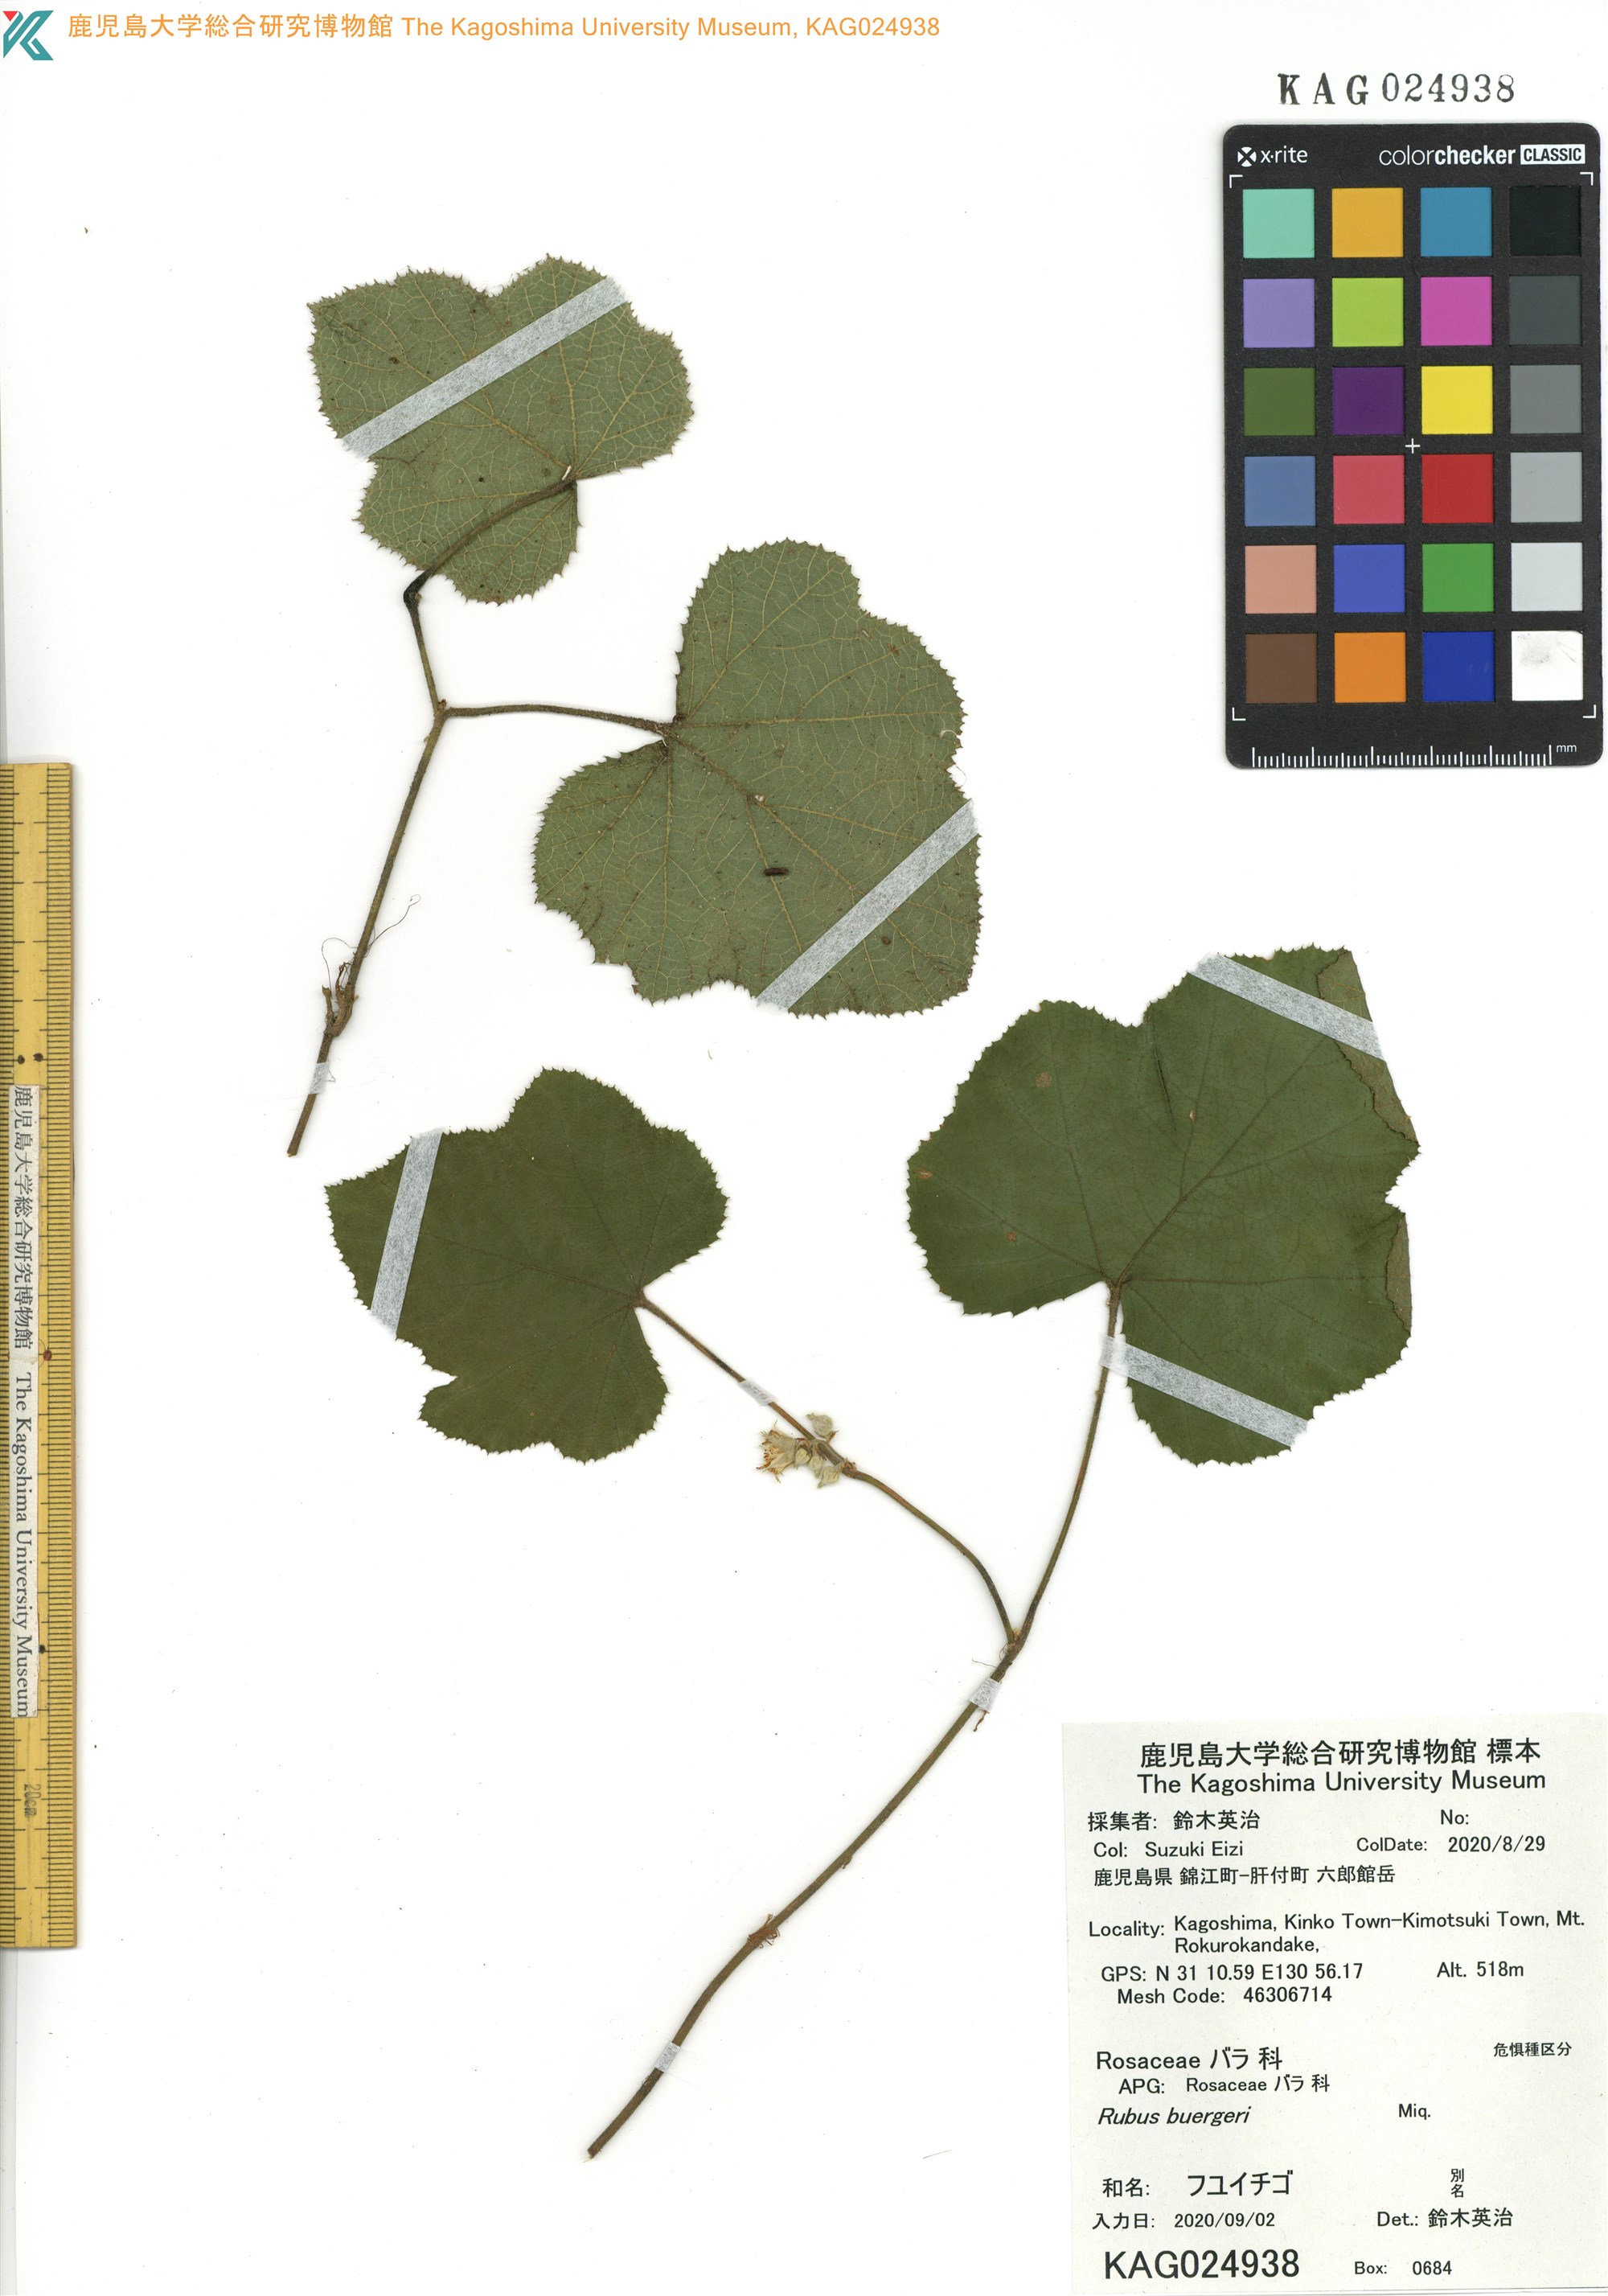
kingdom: Plantae
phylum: Tracheophyta
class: Magnoliopsida
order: Rosales
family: Rosaceae
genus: Rubus
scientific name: Rubus buergeri
